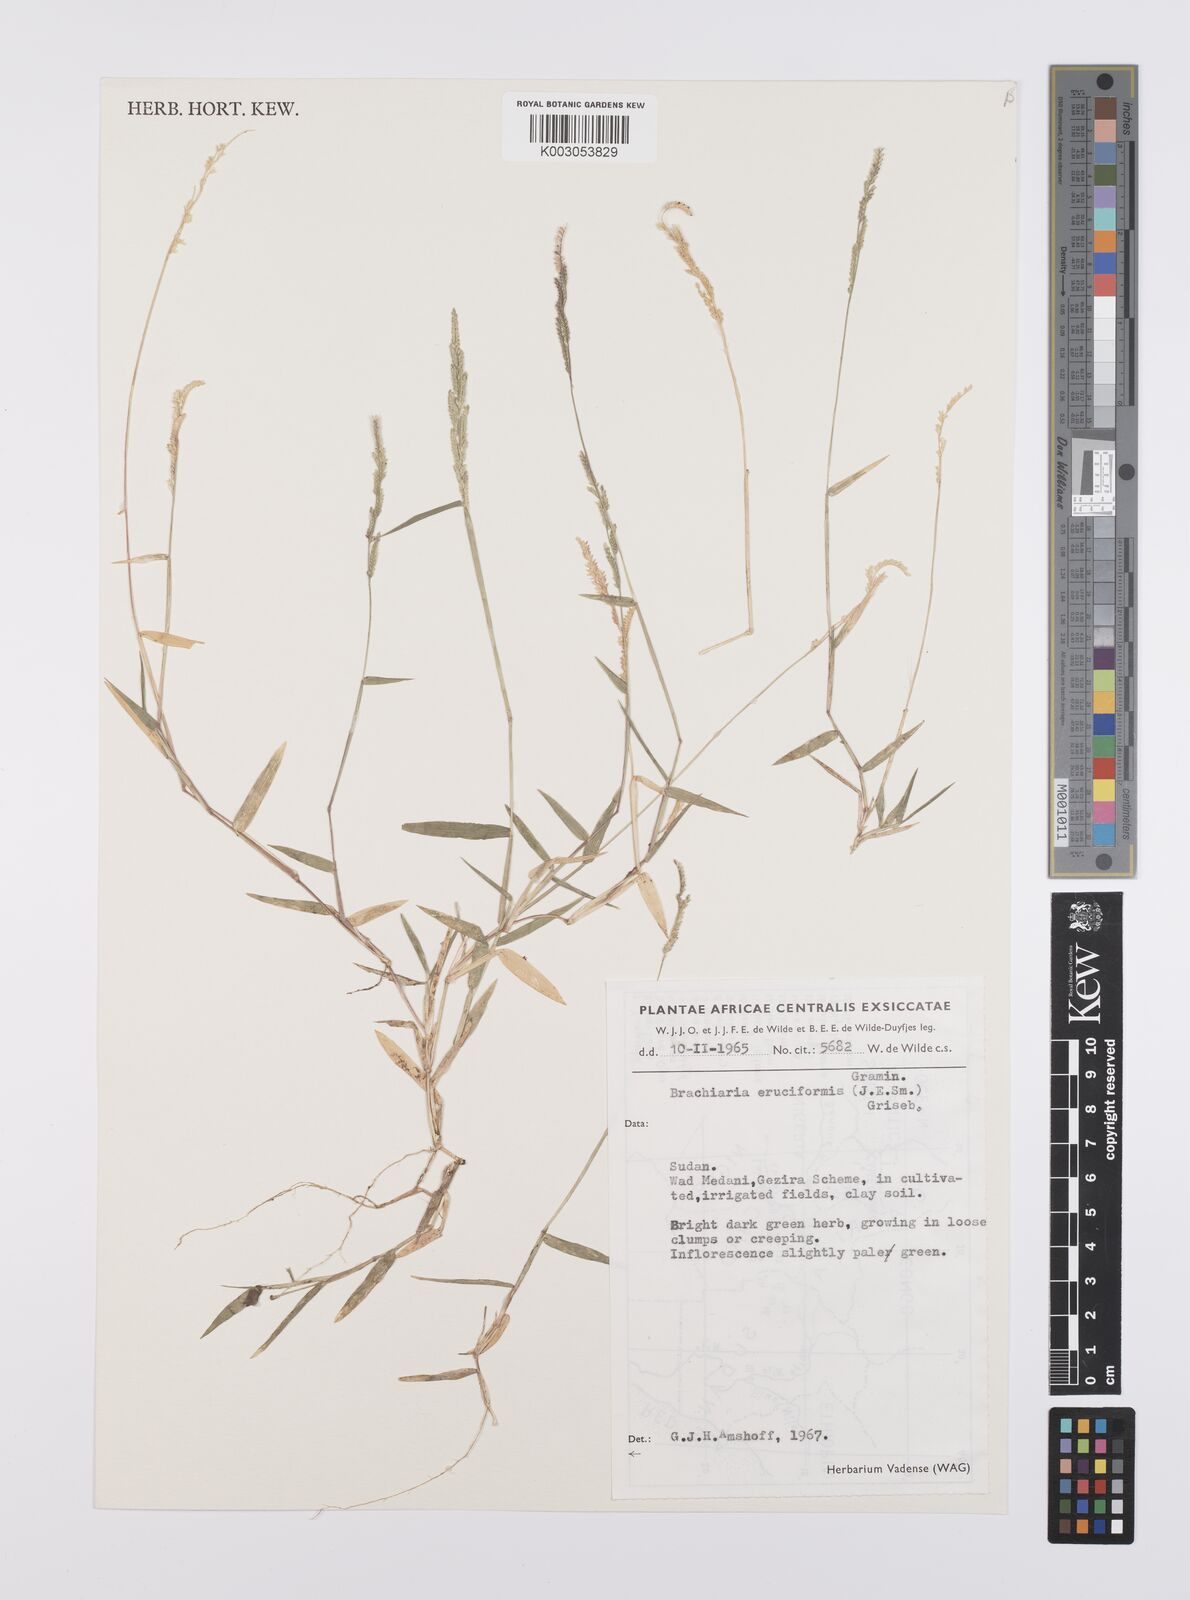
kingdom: Plantae
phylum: Tracheophyta
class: Liliopsida
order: Poales
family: Poaceae
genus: Moorochloa
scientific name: Moorochloa eruciformis
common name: Sweet signalgrass
